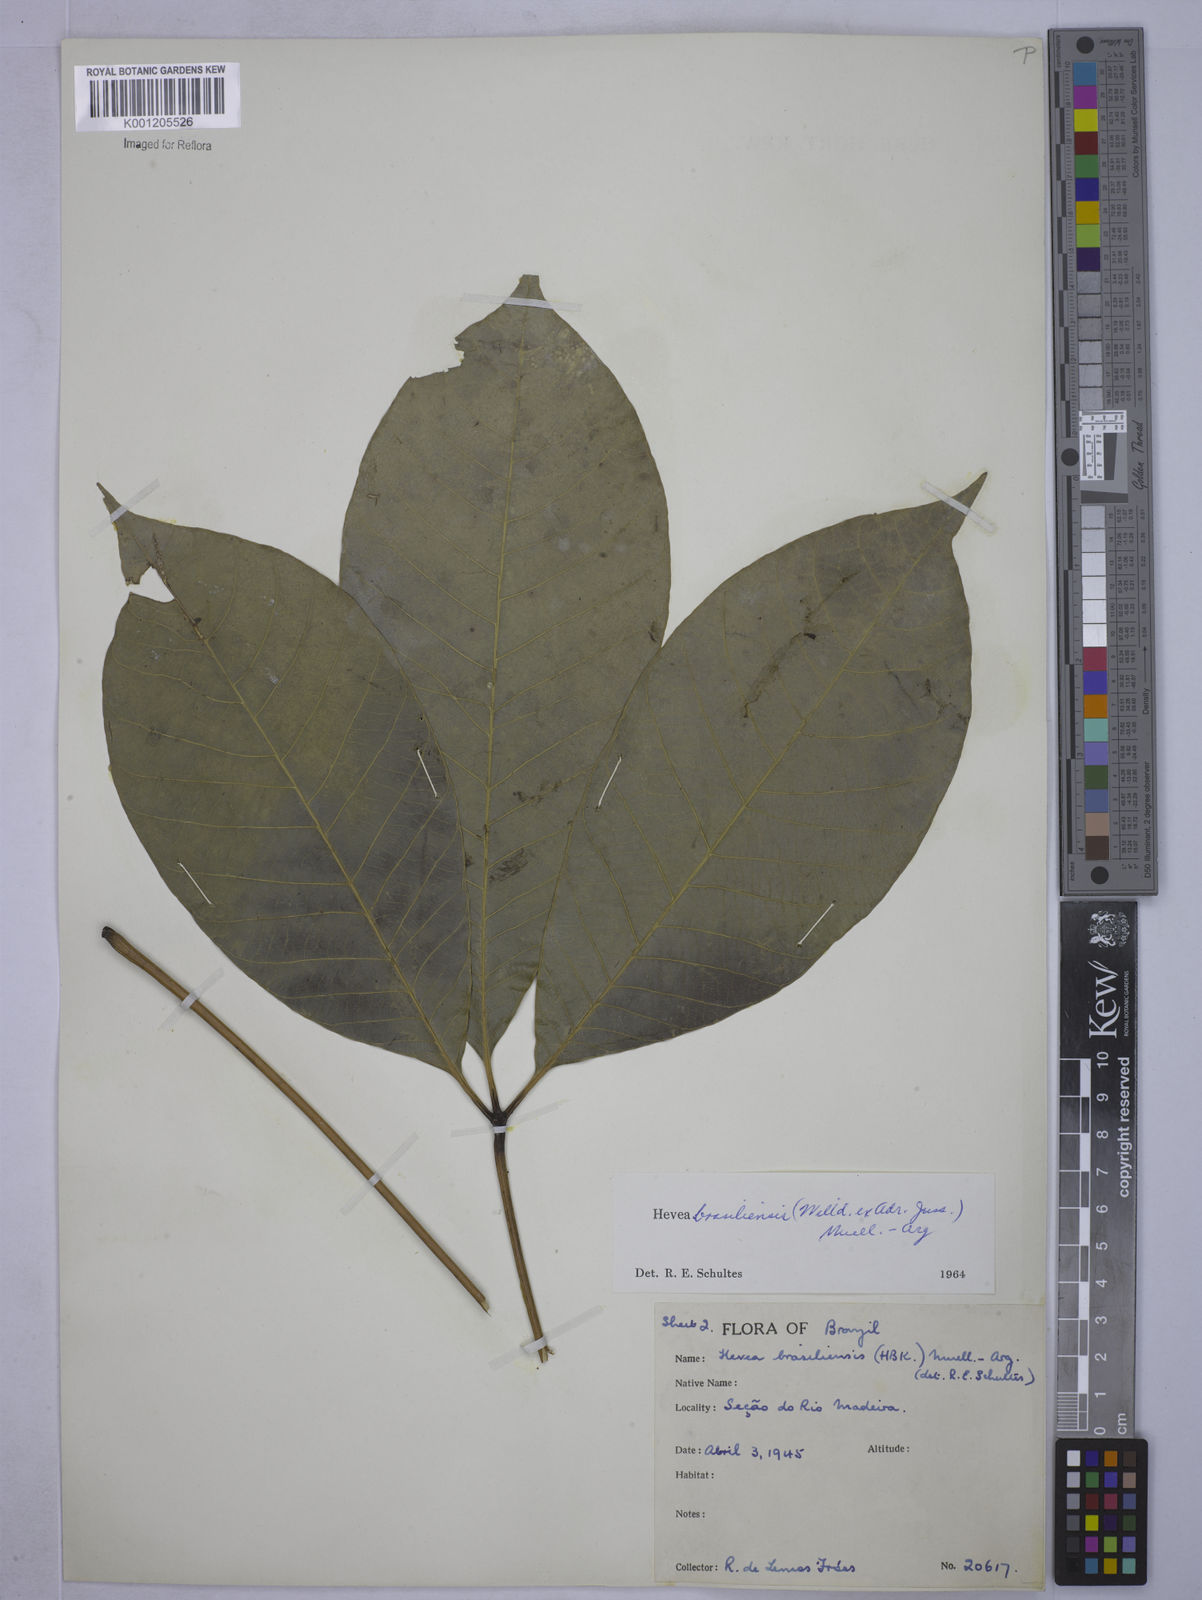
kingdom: Plantae
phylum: Tracheophyta
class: Magnoliopsida
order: Malpighiales
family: Euphorbiaceae
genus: Hevea
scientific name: Hevea
